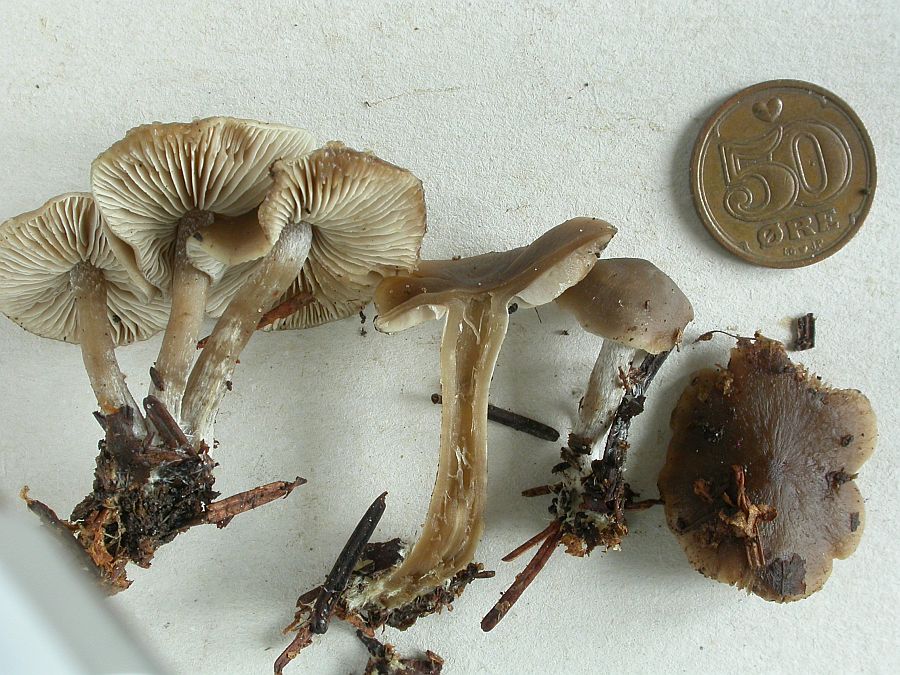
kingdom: Fungi
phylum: Basidiomycota
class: Agaricomycetes
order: Agaricales
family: Lyophyllaceae
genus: Myochromella
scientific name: Myochromella boudieri
